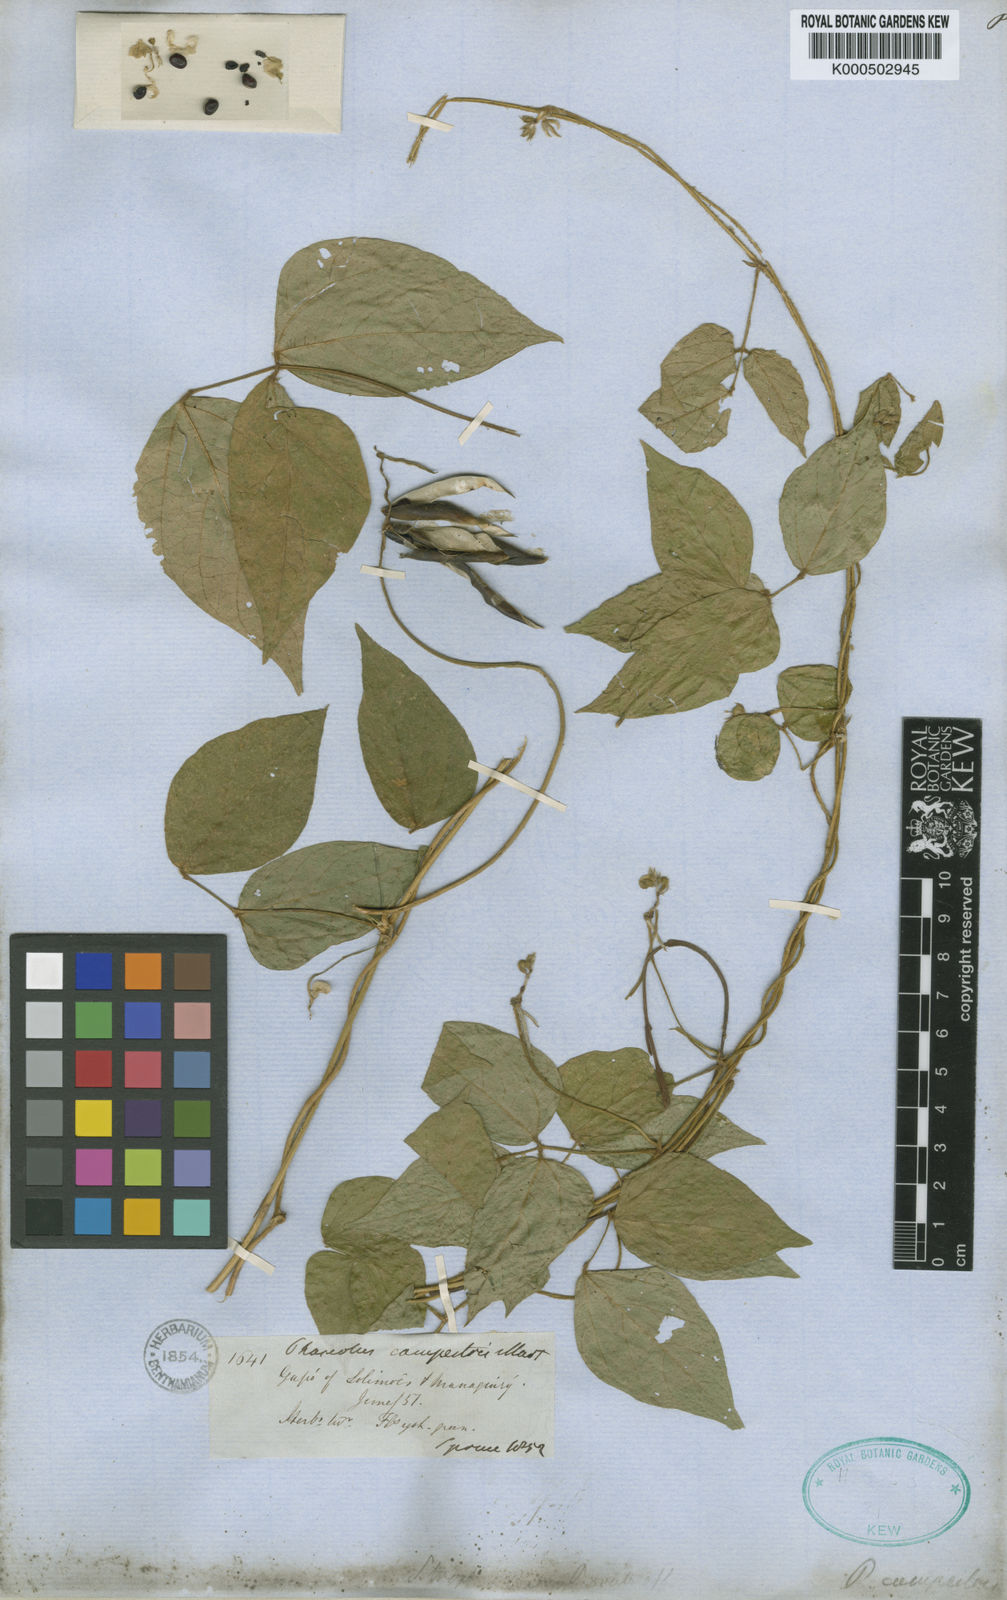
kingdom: Plantae
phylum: Tracheophyta
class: Magnoliopsida
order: Fabales
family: Fabaceae
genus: Vigna
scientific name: Vigna juruana
